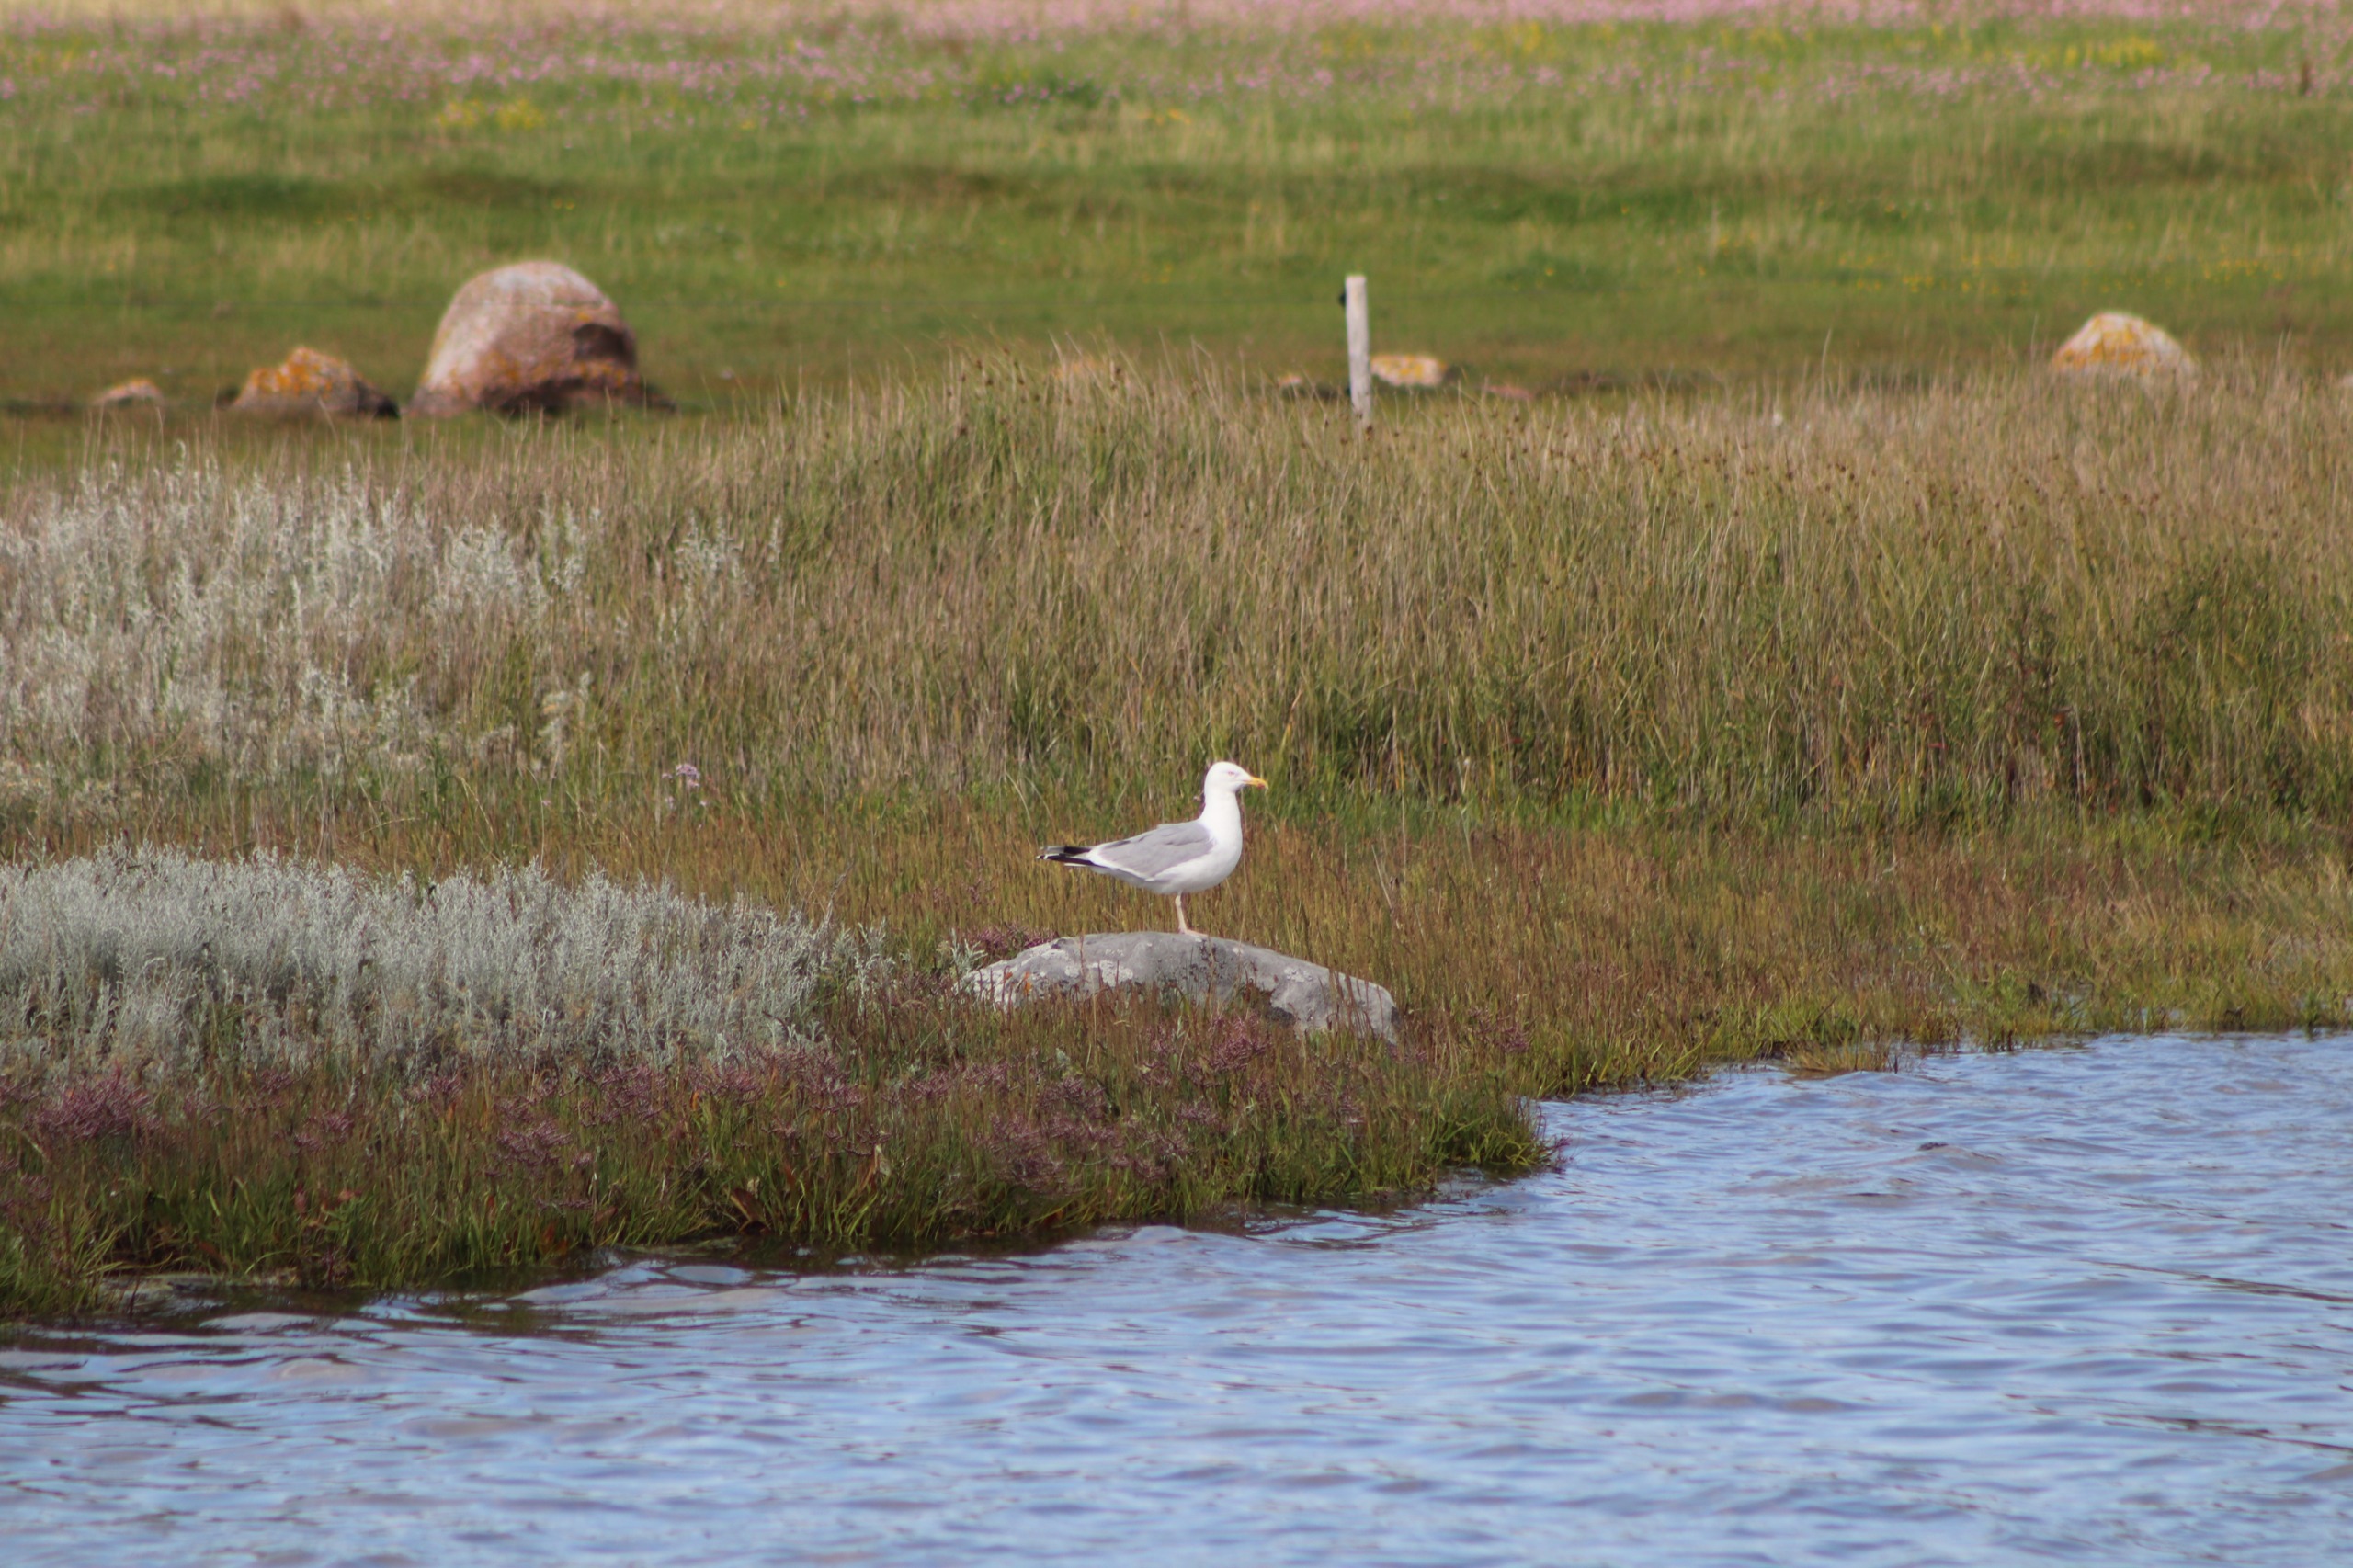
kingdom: Animalia
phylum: Chordata
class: Aves
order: Charadriiformes
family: Laridae
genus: Larus
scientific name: Larus argentatus
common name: Sølvmåge
